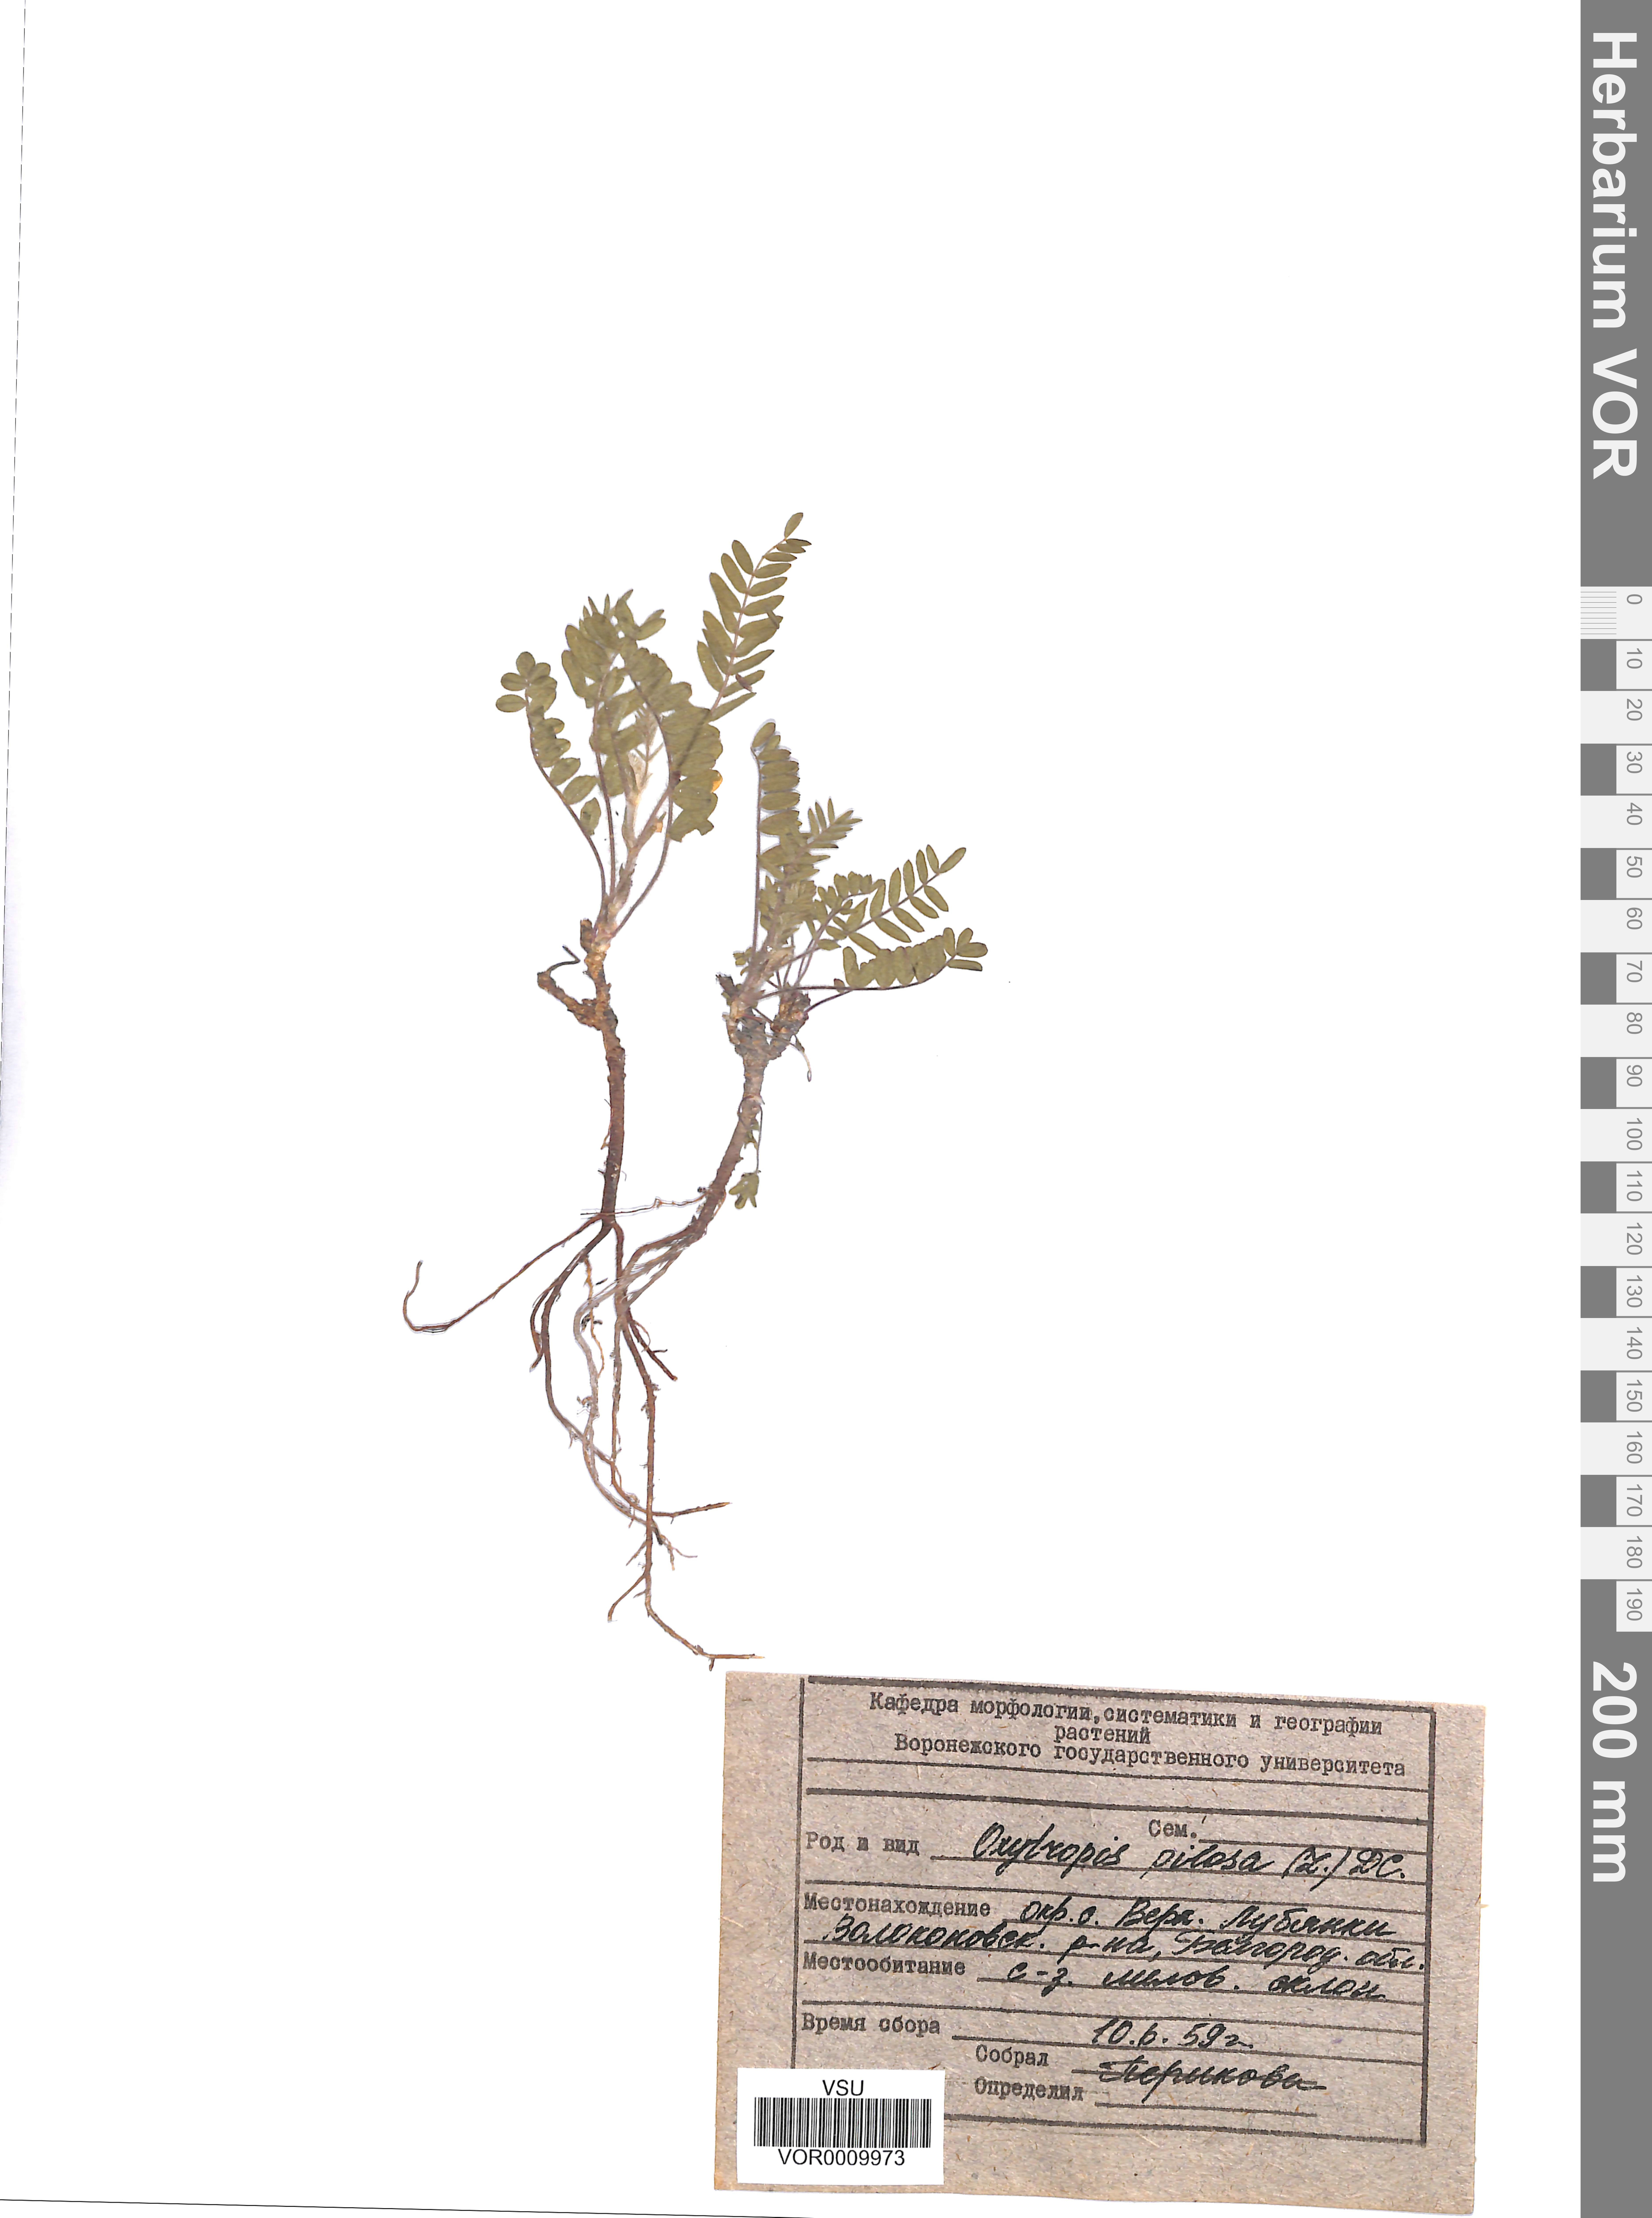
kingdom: Plantae
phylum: Tracheophyta
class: Magnoliopsida
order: Fabales
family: Fabaceae
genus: Oxytropis
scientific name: Oxytropis pilosa
